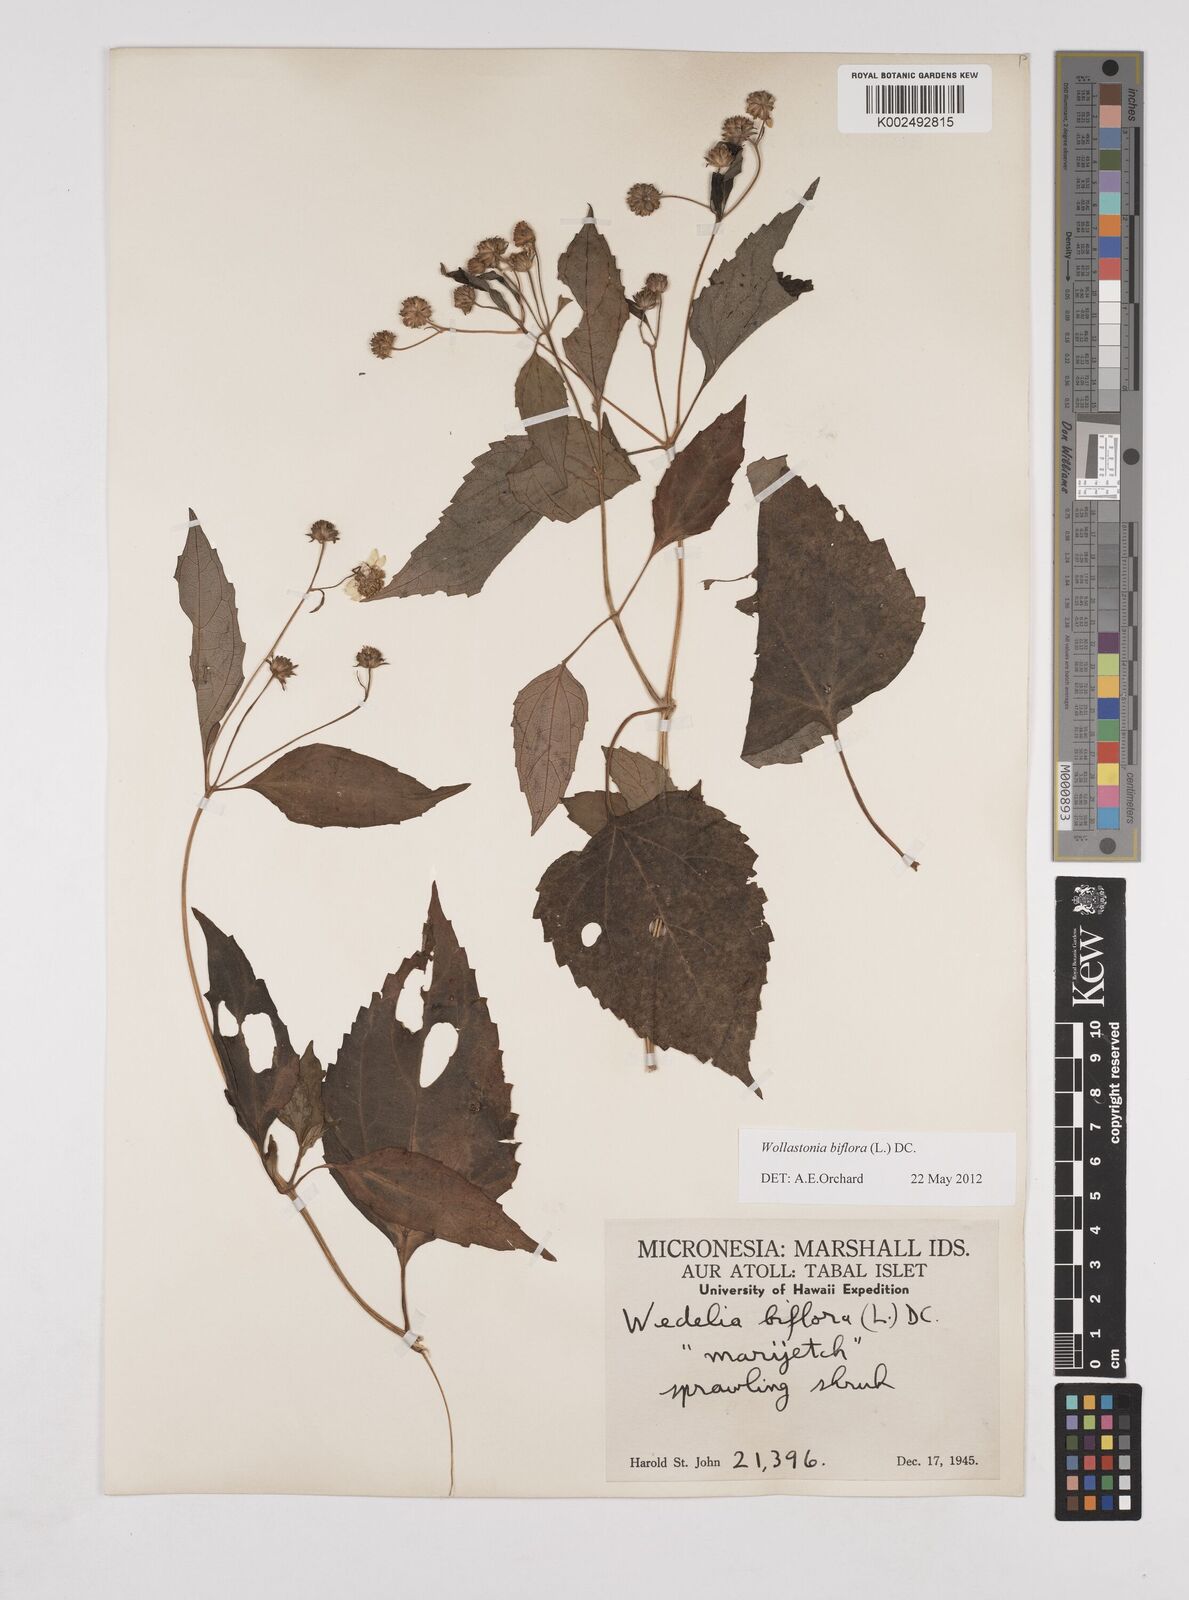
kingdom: Plantae
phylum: Tracheophyta
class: Magnoliopsida
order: Asterales
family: Asteraceae
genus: Wollastonia
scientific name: Wollastonia biflora
